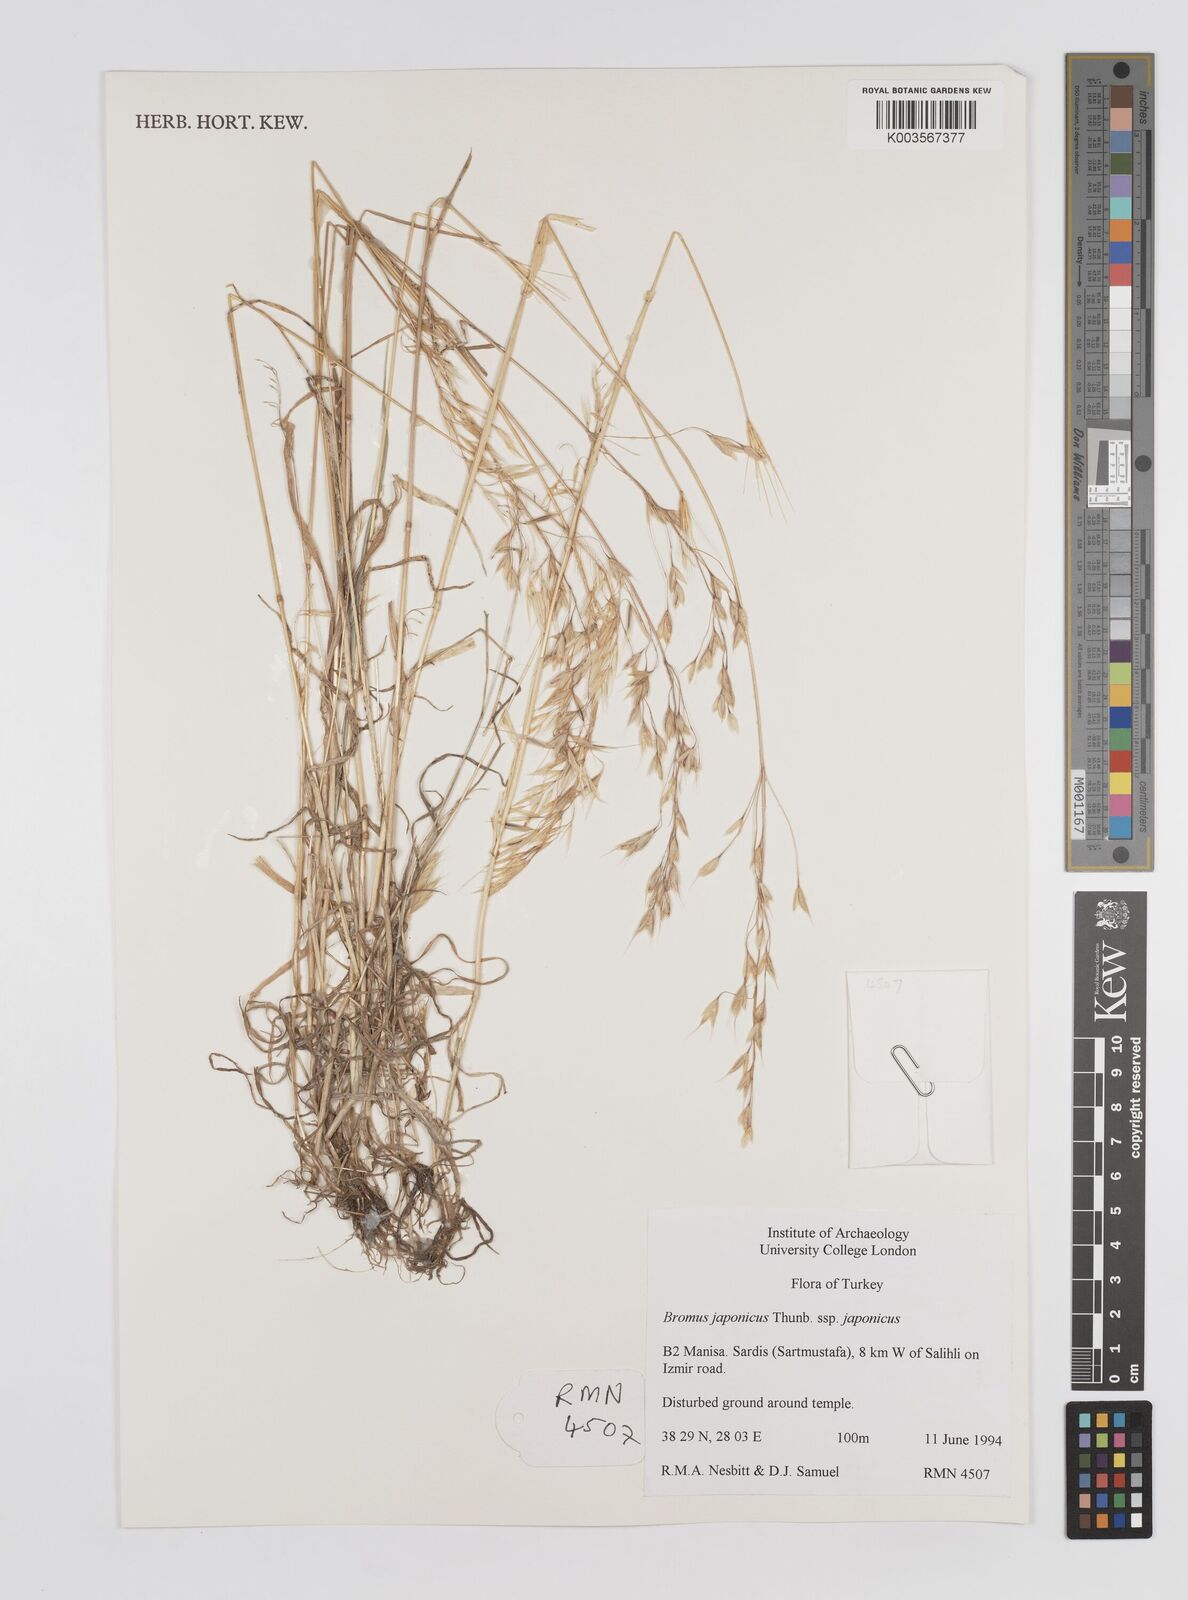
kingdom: Plantae
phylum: Tracheophyta
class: Liliopsida
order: Poales
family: Poaceae
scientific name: Poaceae
